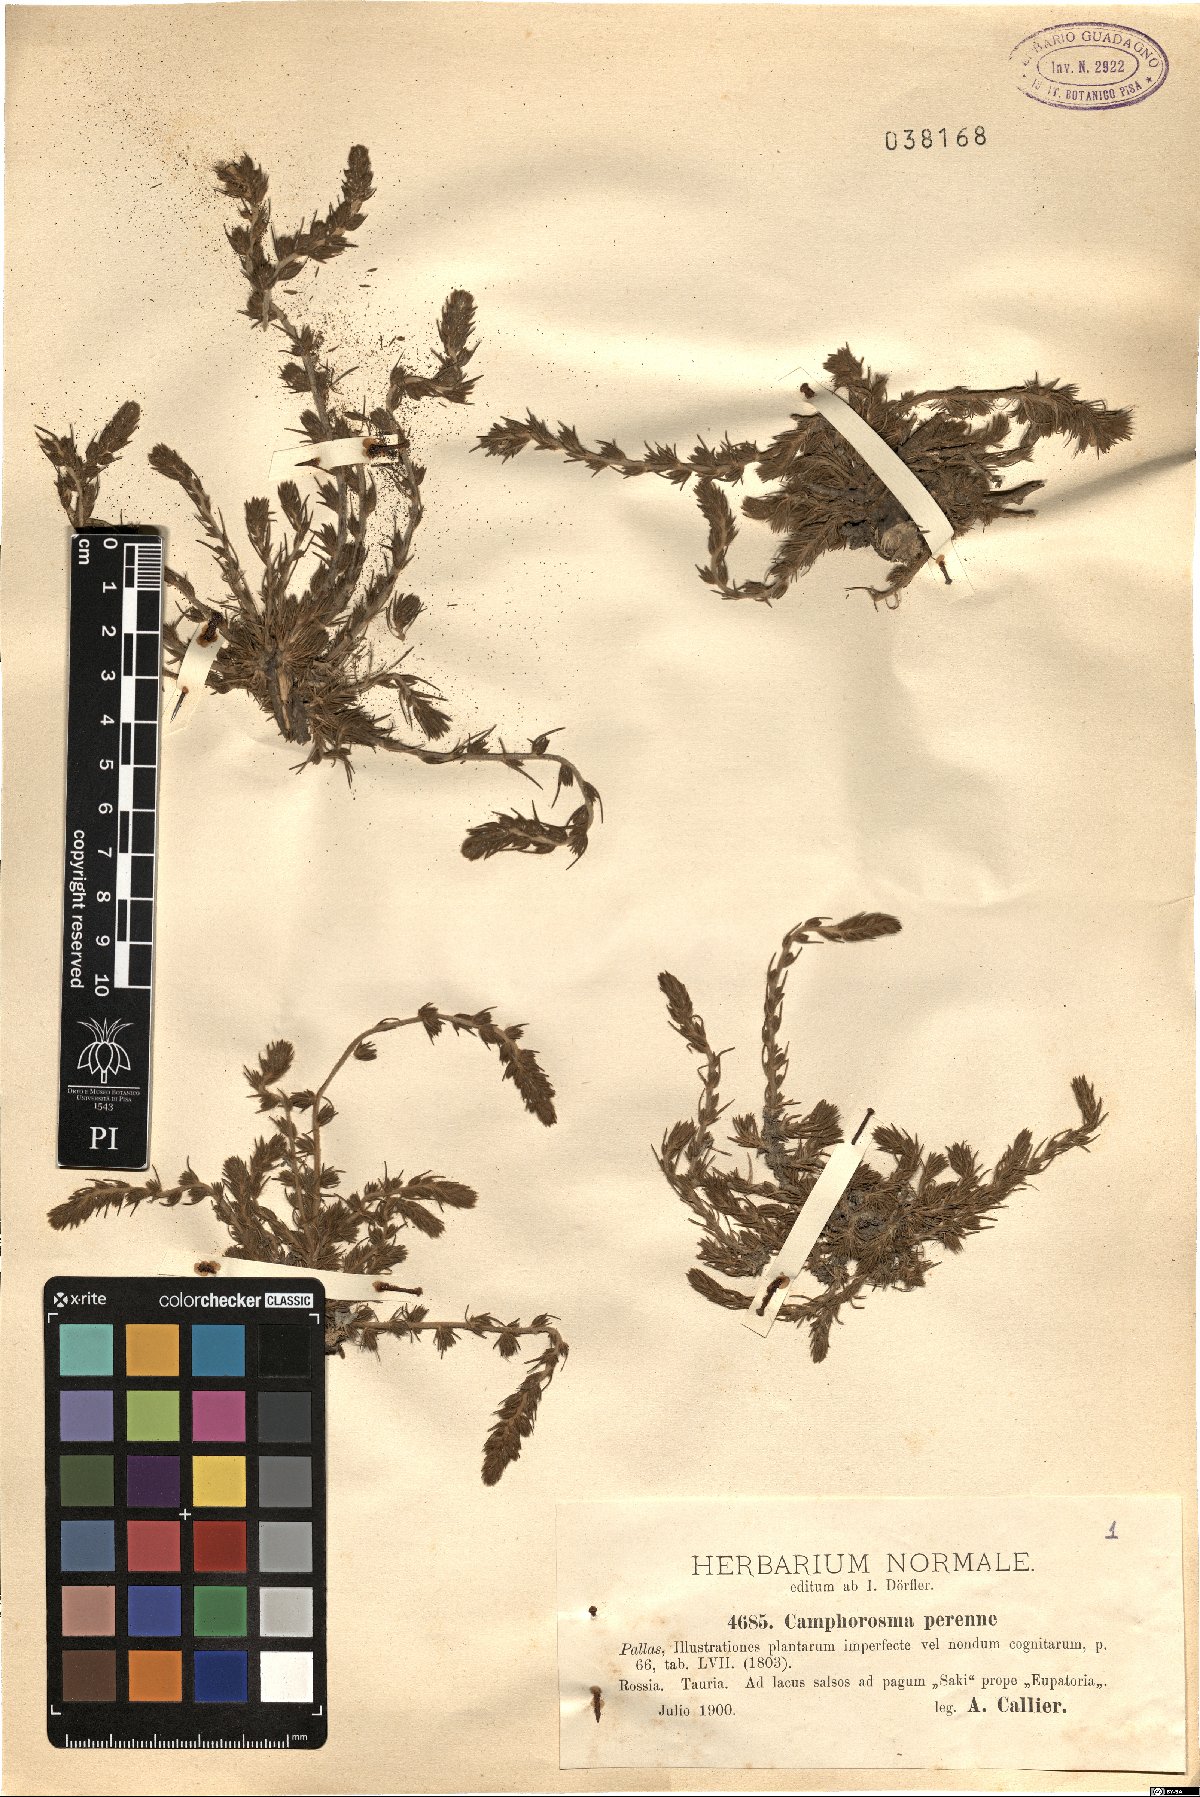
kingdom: Plantae
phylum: Tracheophyta
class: Magnoliopsida
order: Caryophyllales
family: Amaranthaceae
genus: Camphorosma
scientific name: Camphorosma monspeliaca
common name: Camphorfume
